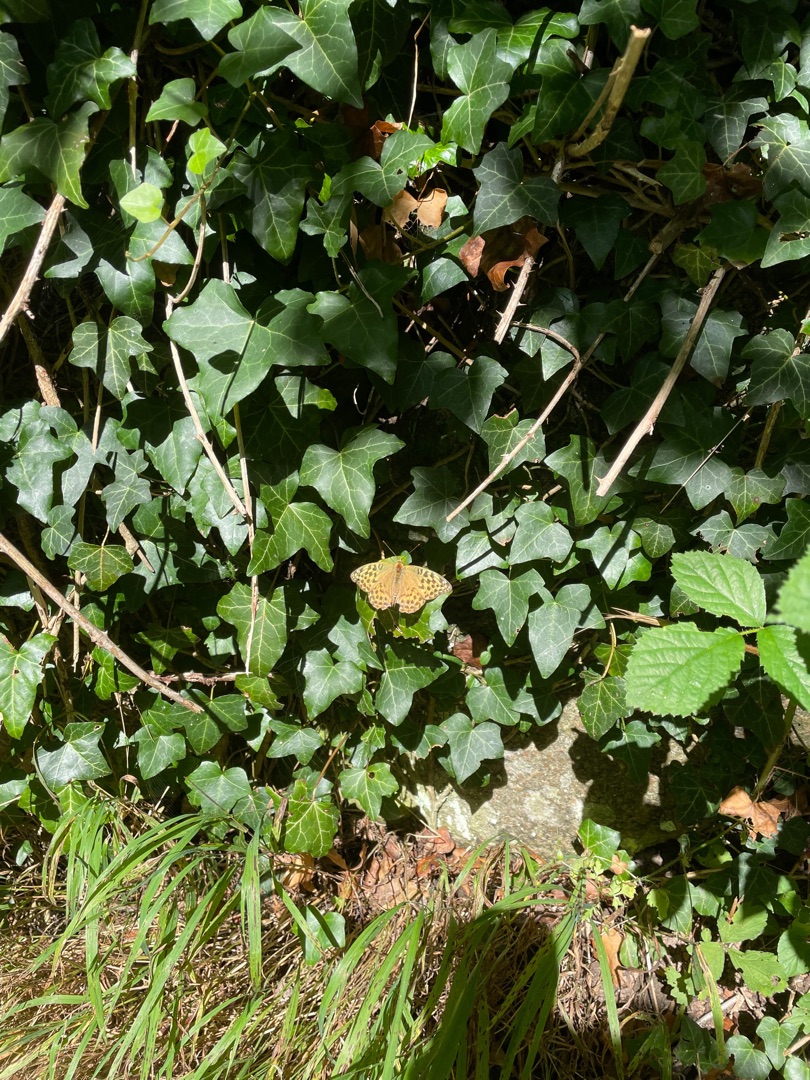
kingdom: Animalia
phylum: Arthropoda
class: Insecta
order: Lepidoptera
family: Nymphalidae
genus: Argynnis
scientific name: Argynnis paphia
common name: Kejserkåbe
